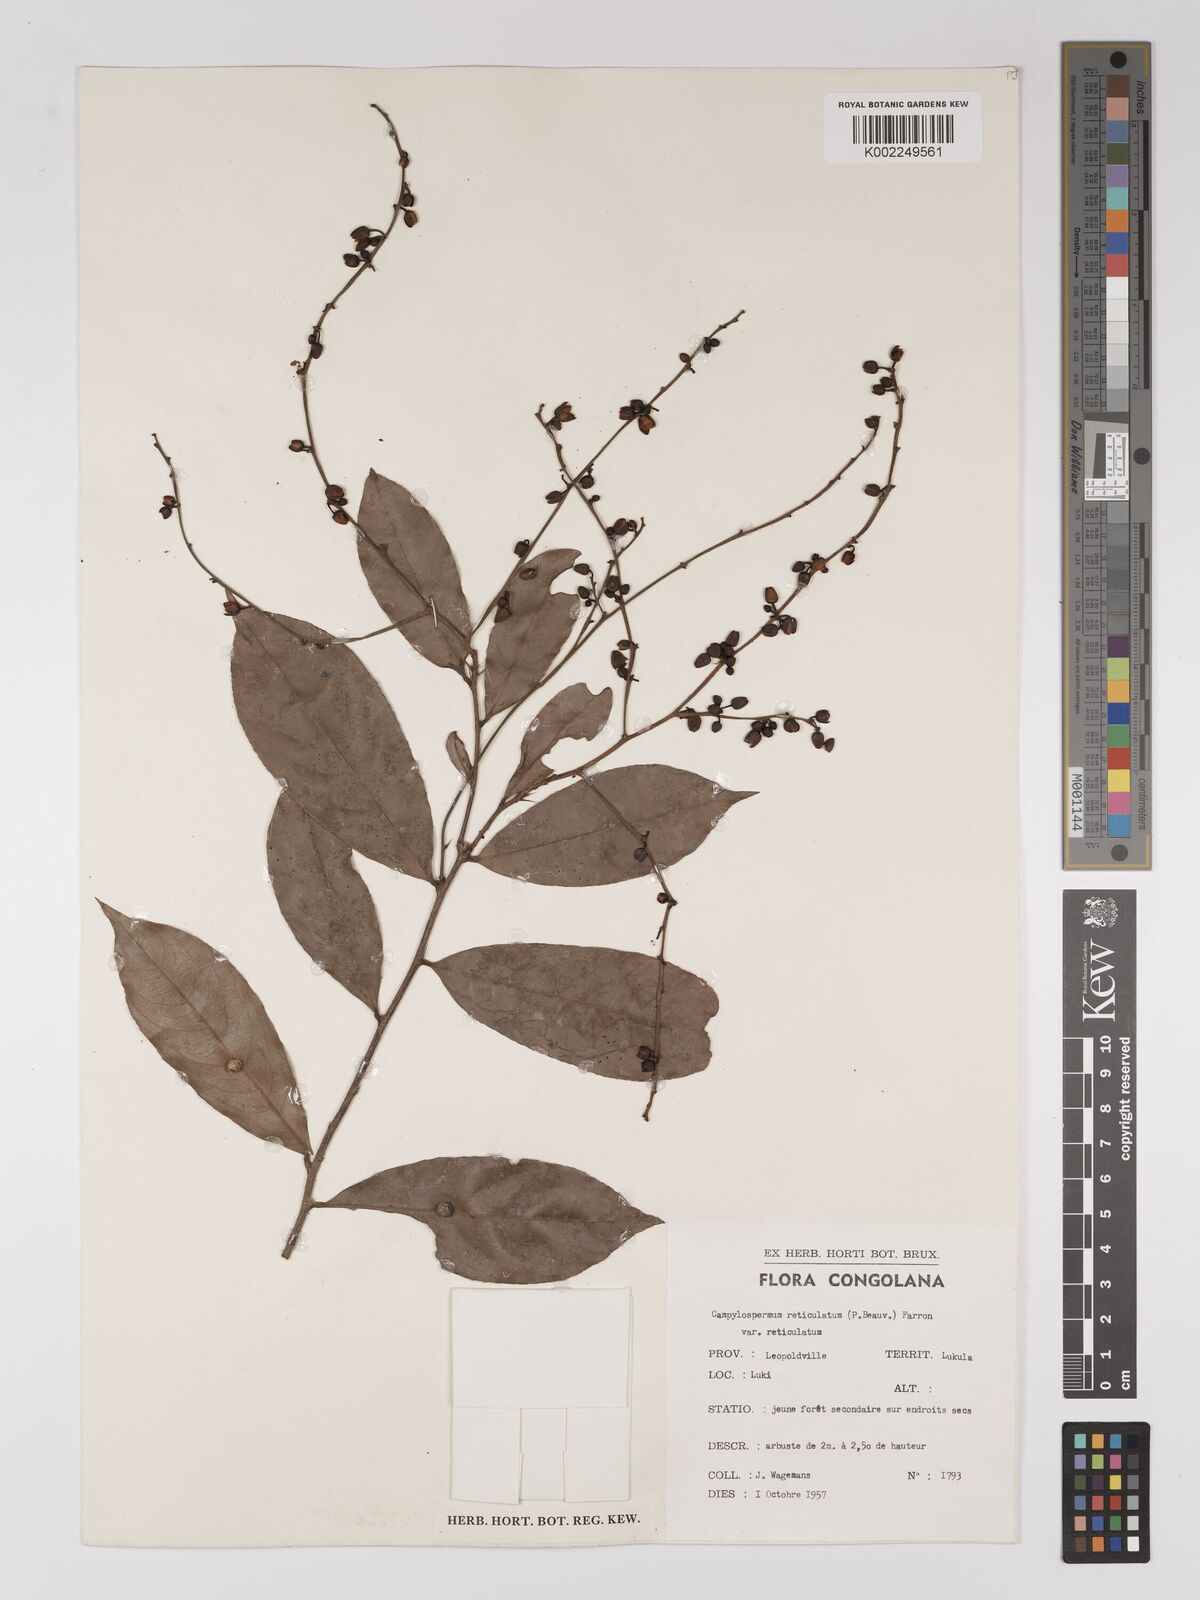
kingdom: Plantae
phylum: Tracheophyta
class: Magnoliopsida
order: Malpighiales
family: Ochnaceae
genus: Campylospermum
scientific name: Campylospermum reticulatum
